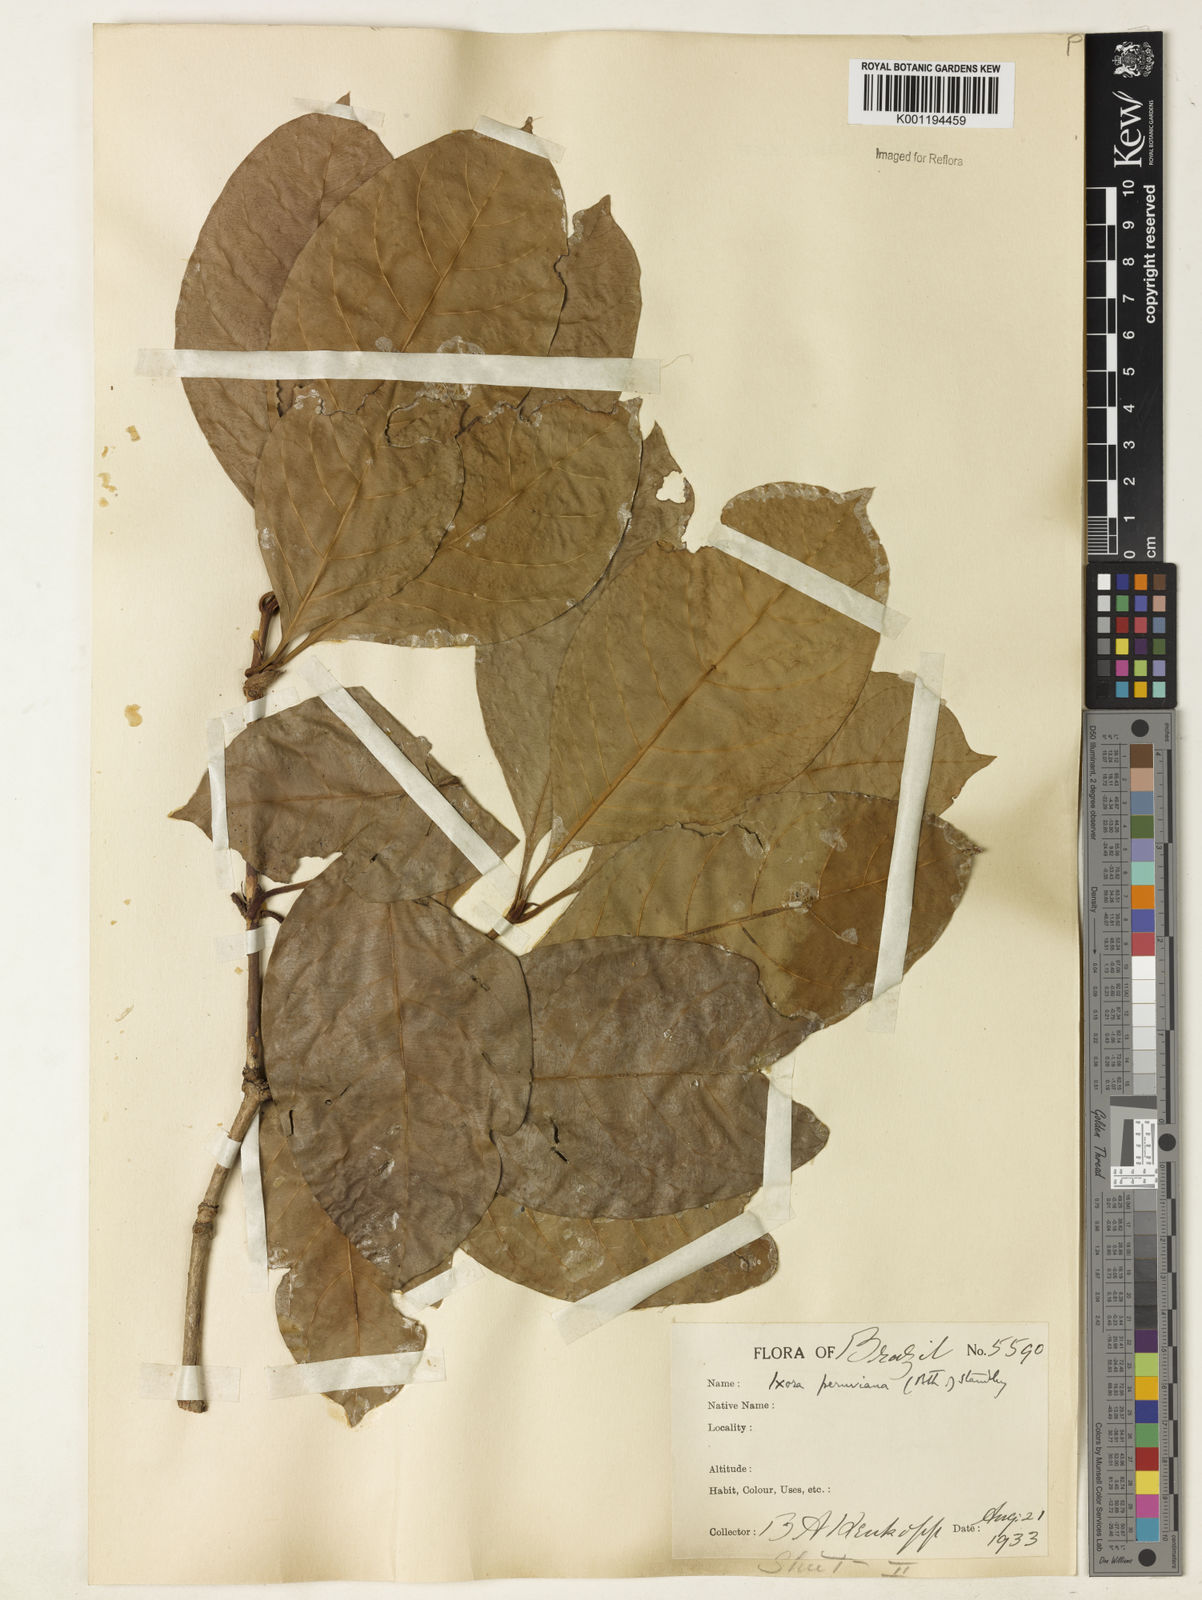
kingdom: Plantae
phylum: Tracheophyta
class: Magnoliopsida
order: Gentianales
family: Rubiaceae
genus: Ixora
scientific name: Ixora peruviana
